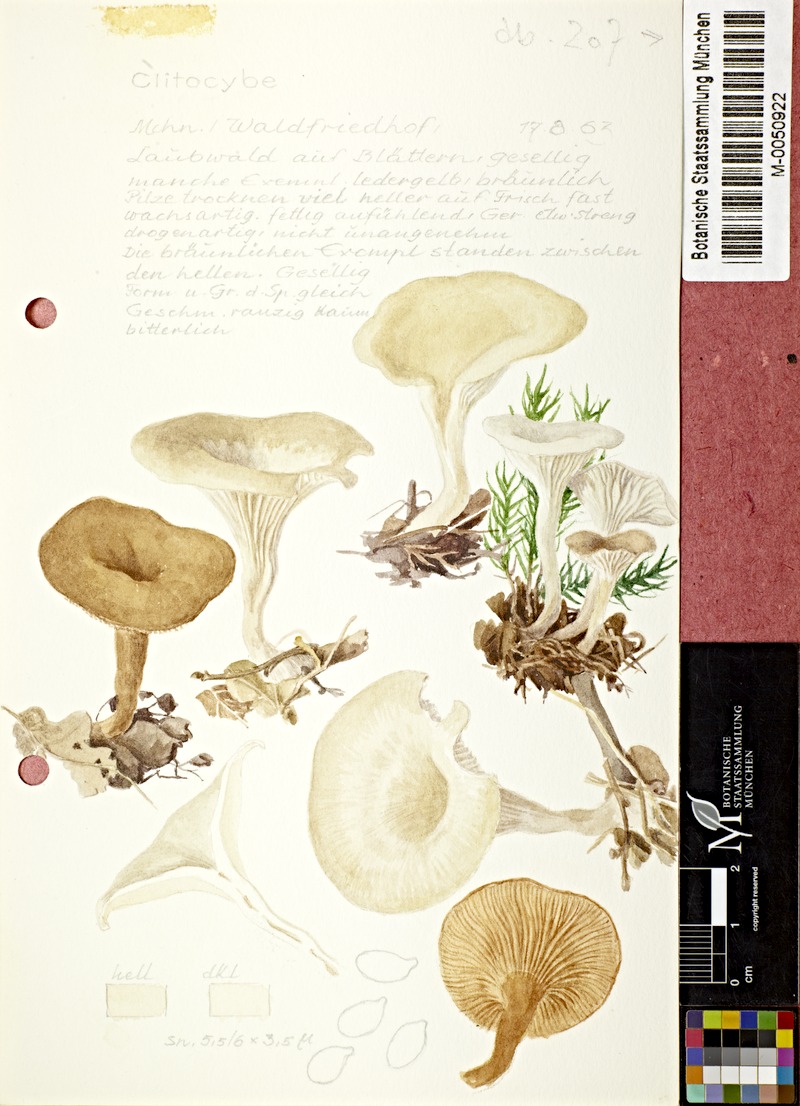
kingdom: Fungi
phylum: Basidiomycota
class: Agaricomycetes
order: Agaricales
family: Tricholomataceae
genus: Clitocybe
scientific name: Clitocybe
